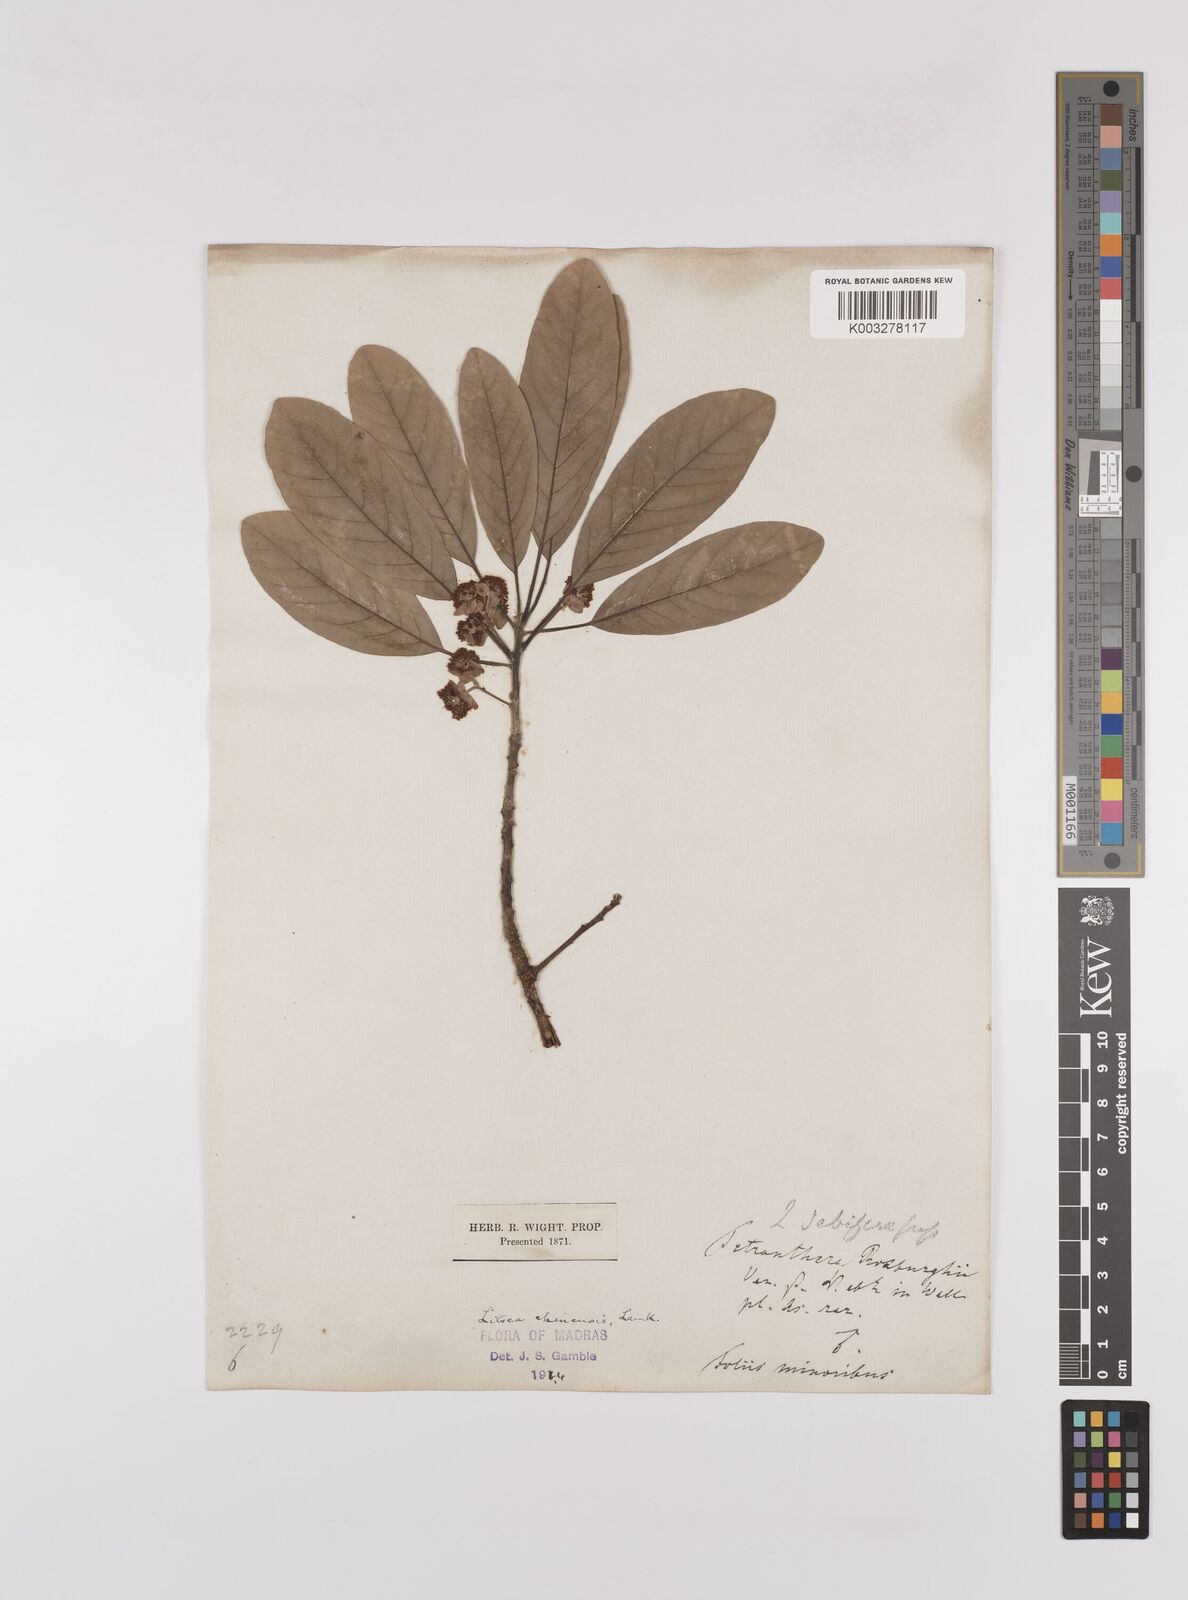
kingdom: Plantae
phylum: Tracheophyta
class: Magnoliopsida
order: Laurales
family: Lauraceae
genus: Litsea
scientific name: Litsea
